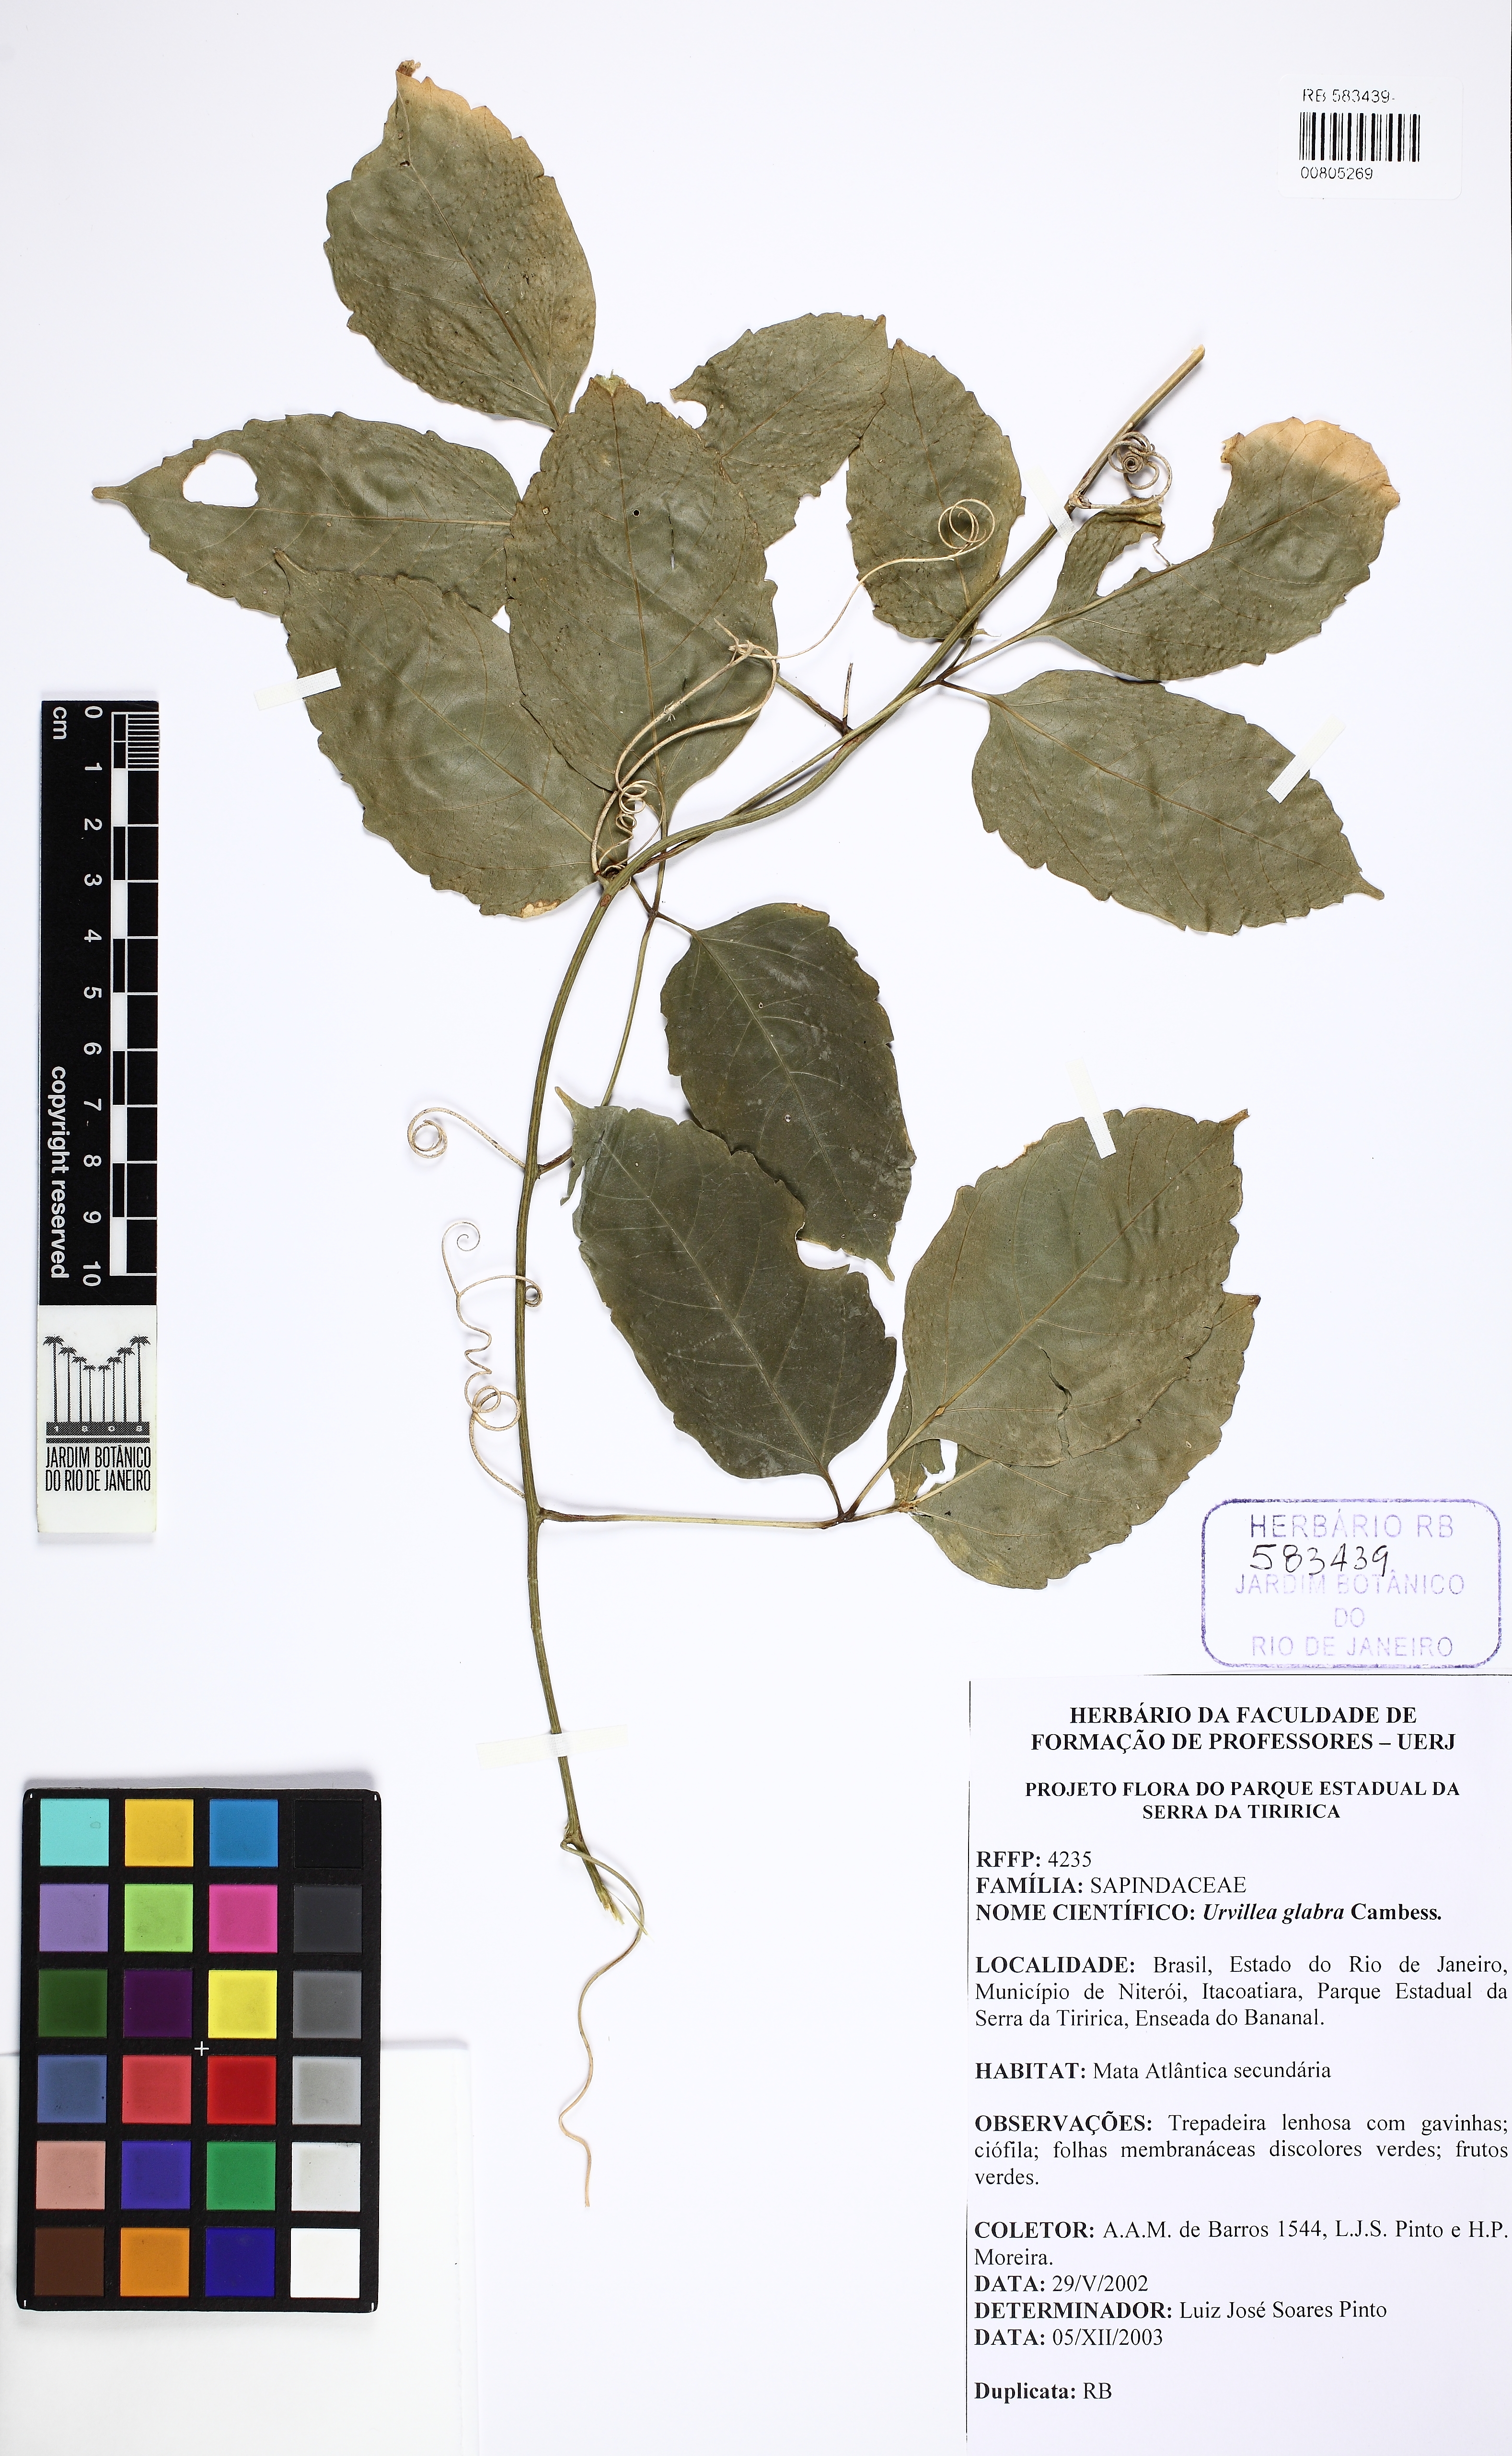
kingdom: Plantae
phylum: Tracheophyta
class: Magnoliopsida
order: Sapindales
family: Sapindaceae
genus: Urvillea
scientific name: Urvillea glabra
